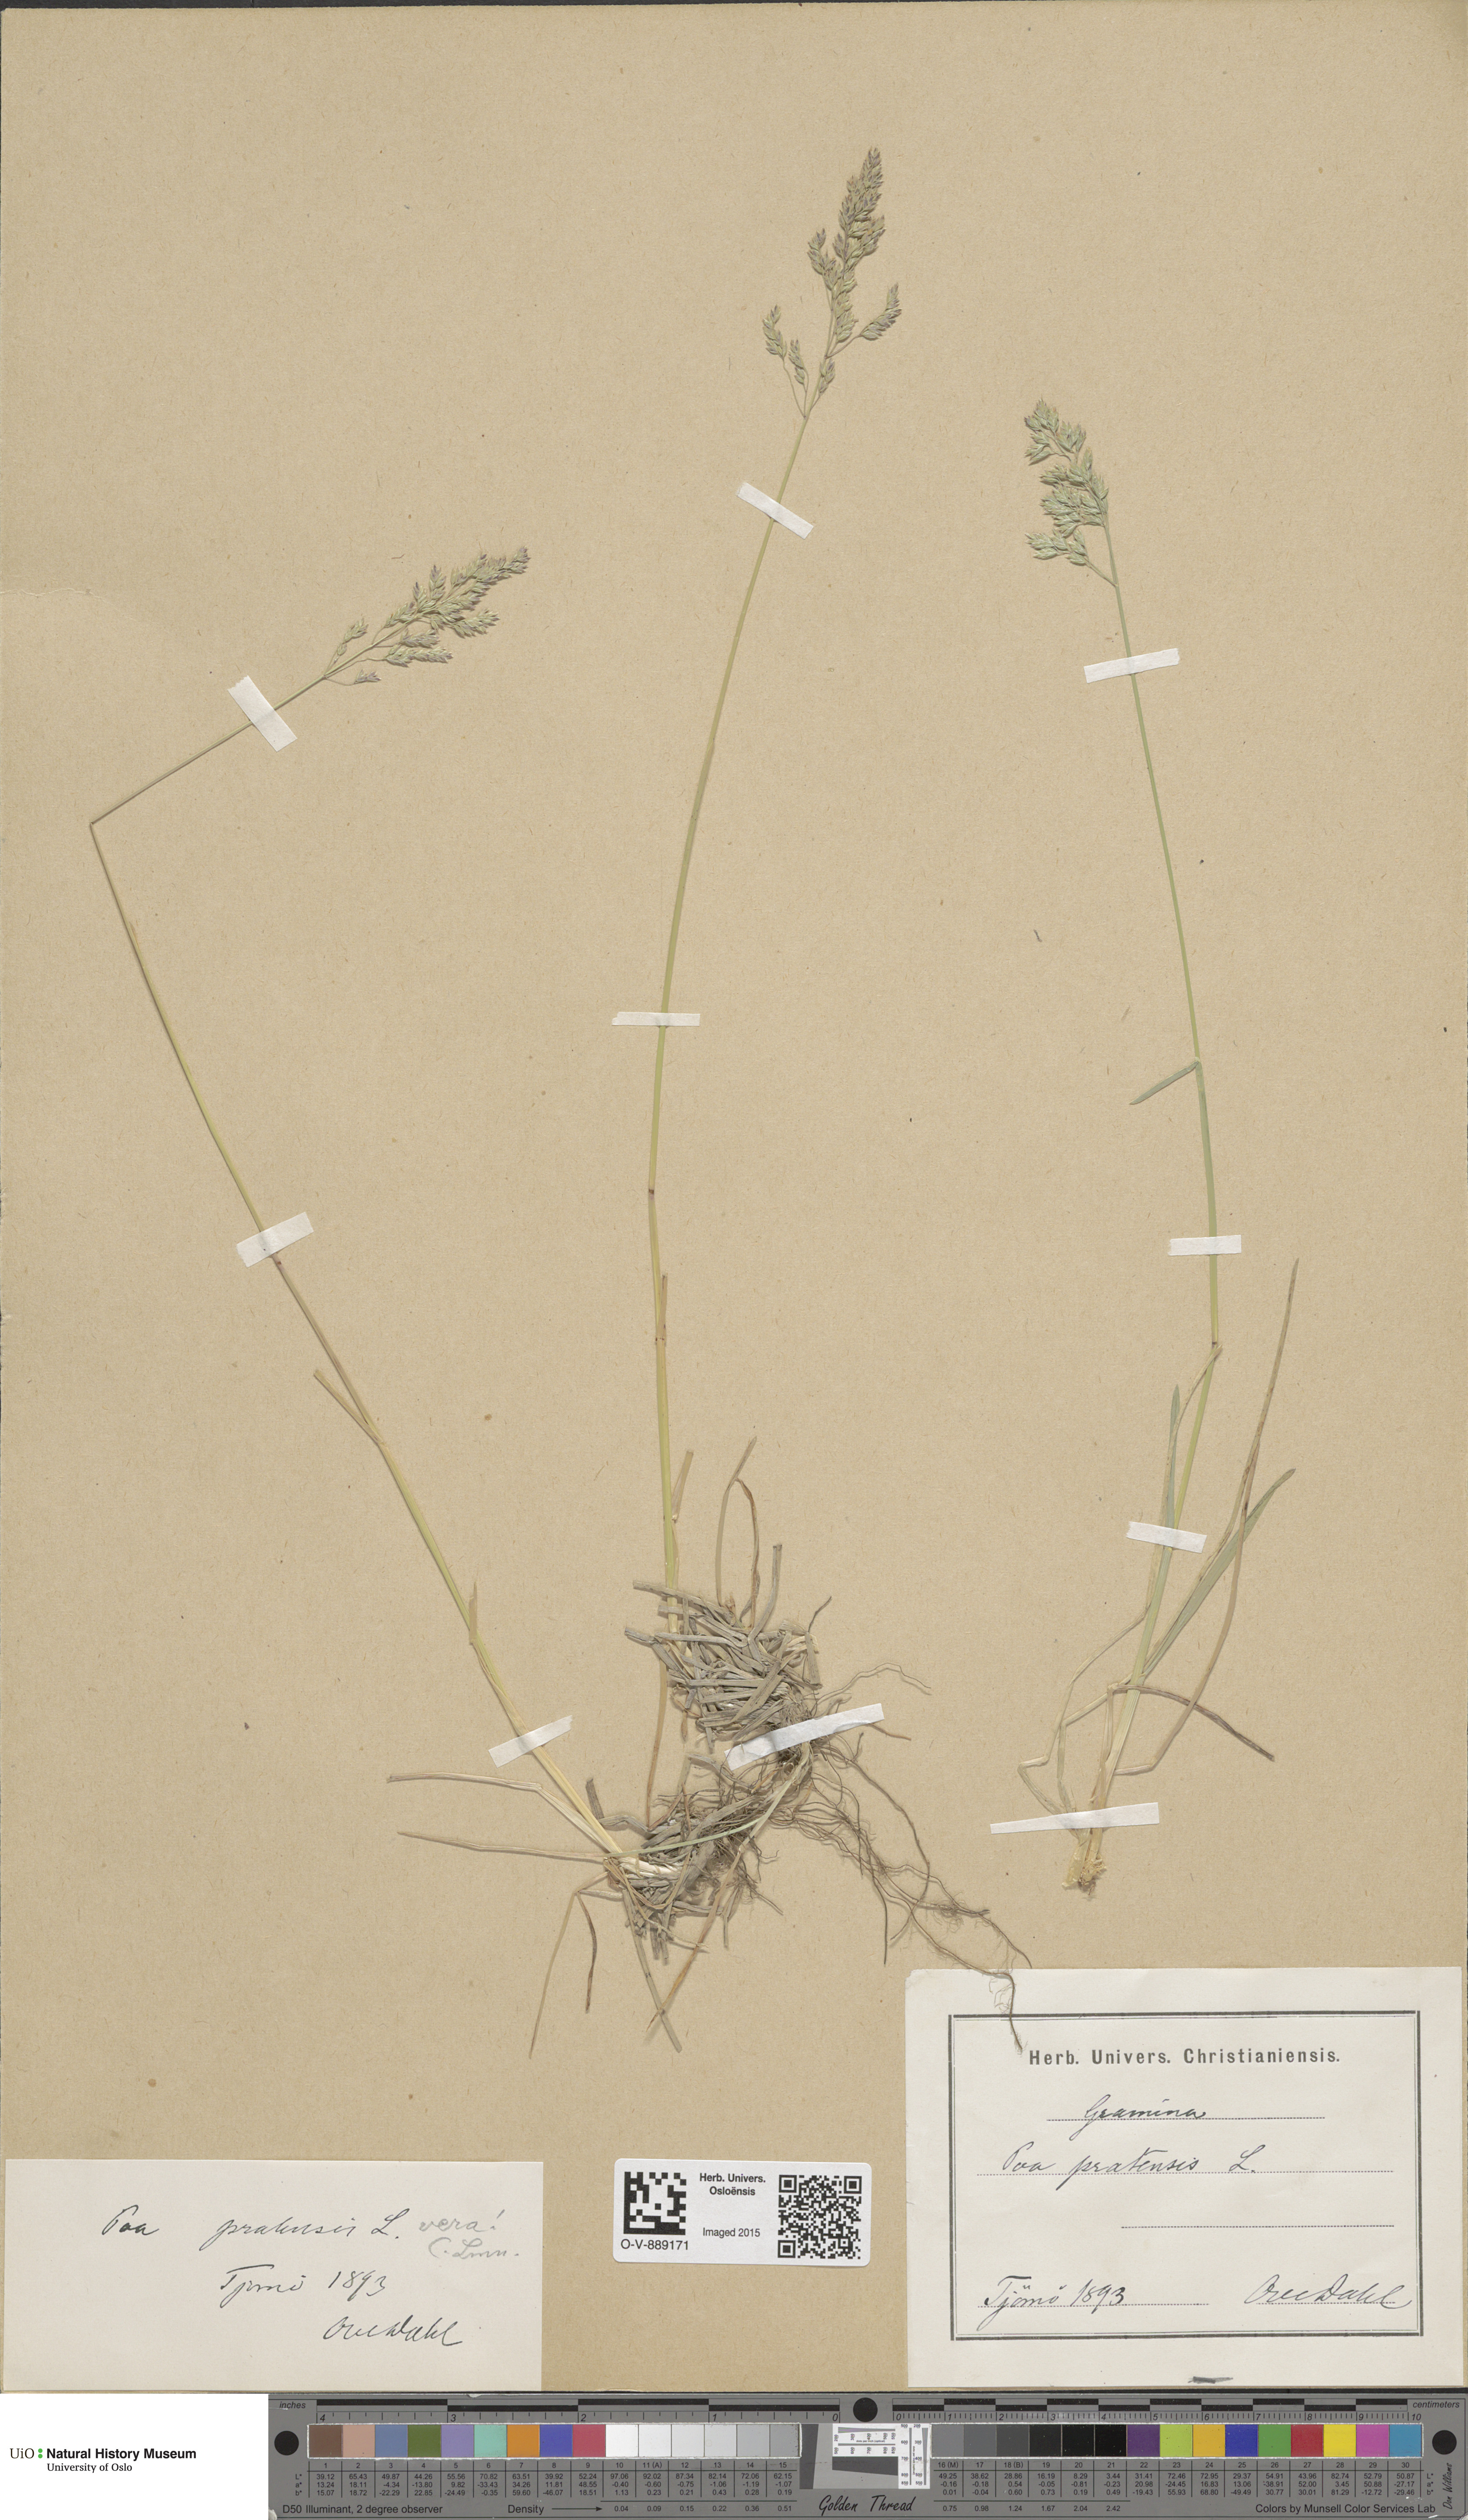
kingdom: Plantae
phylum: Tracheophyta
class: Liliopsida
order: Poales
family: Poaceae
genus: Poa
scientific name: Poa pratensis
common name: Kentucky bluegrass
